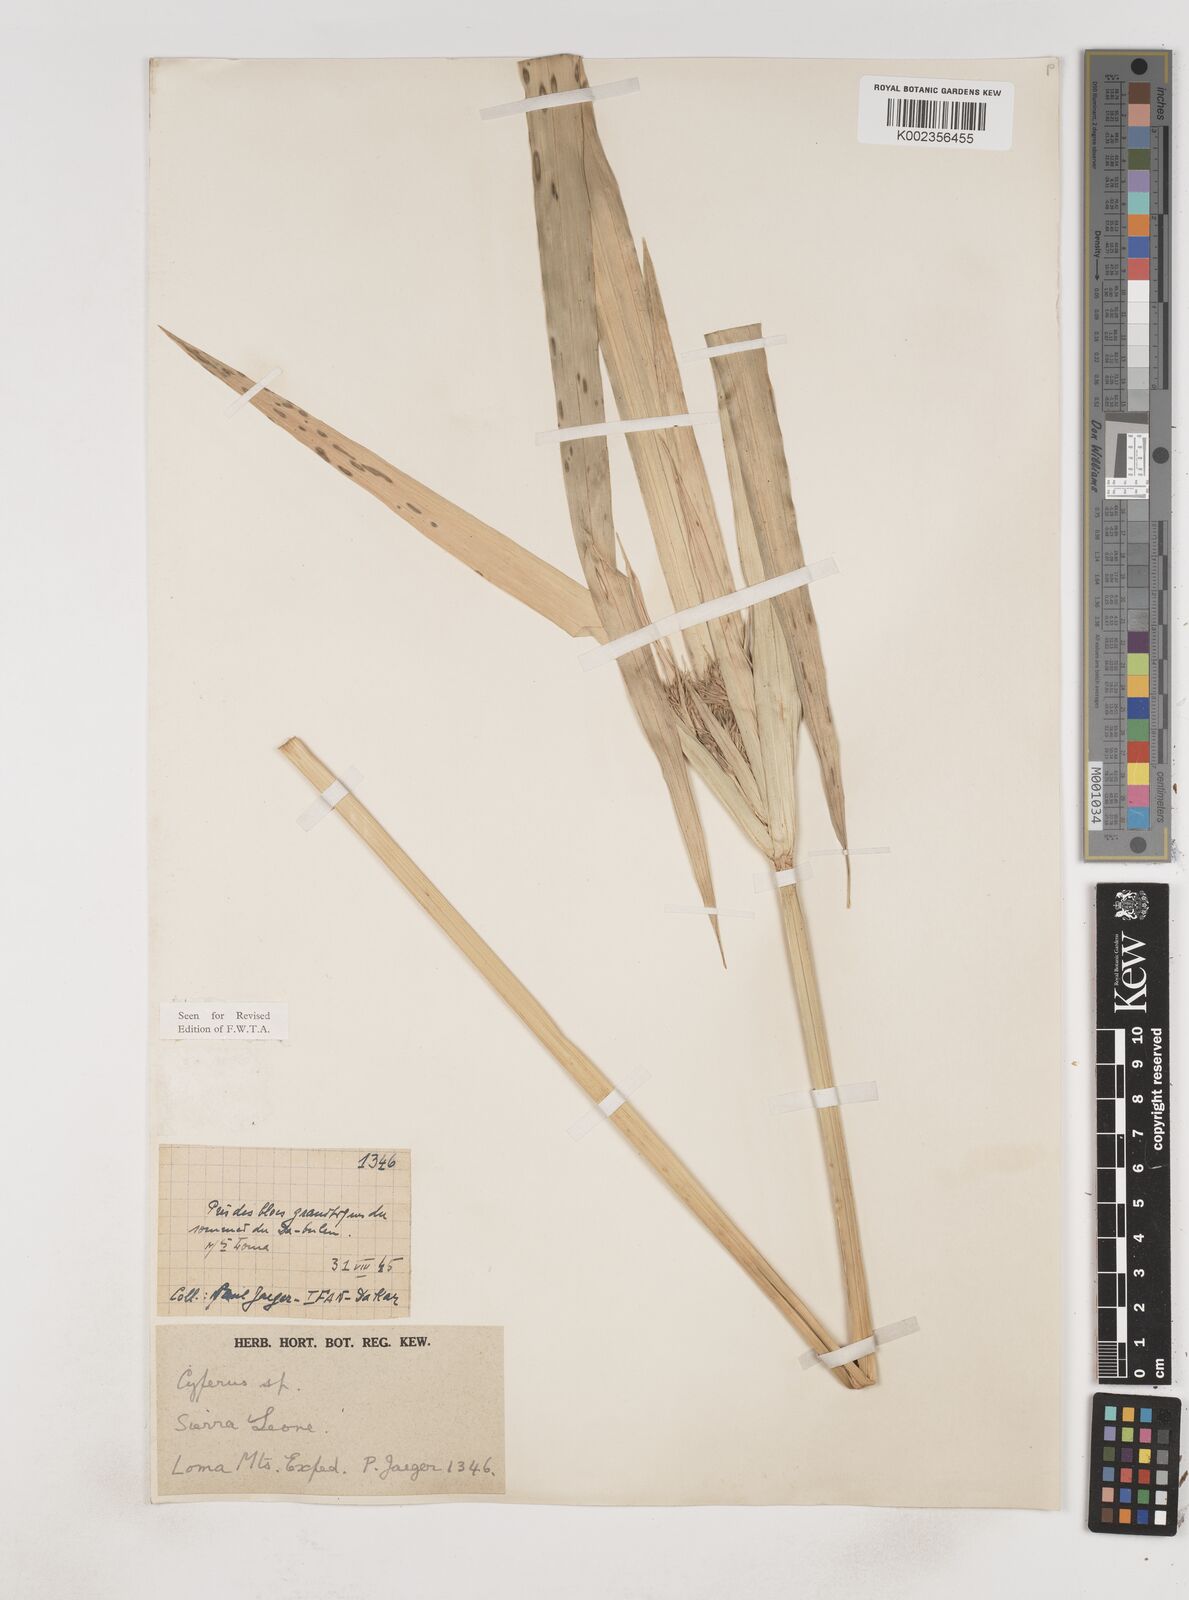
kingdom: Plantae
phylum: Tracheophyta
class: Liliopsida
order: Poales
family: Cyperaceae
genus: Cyperus
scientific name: Cyperus baronii
